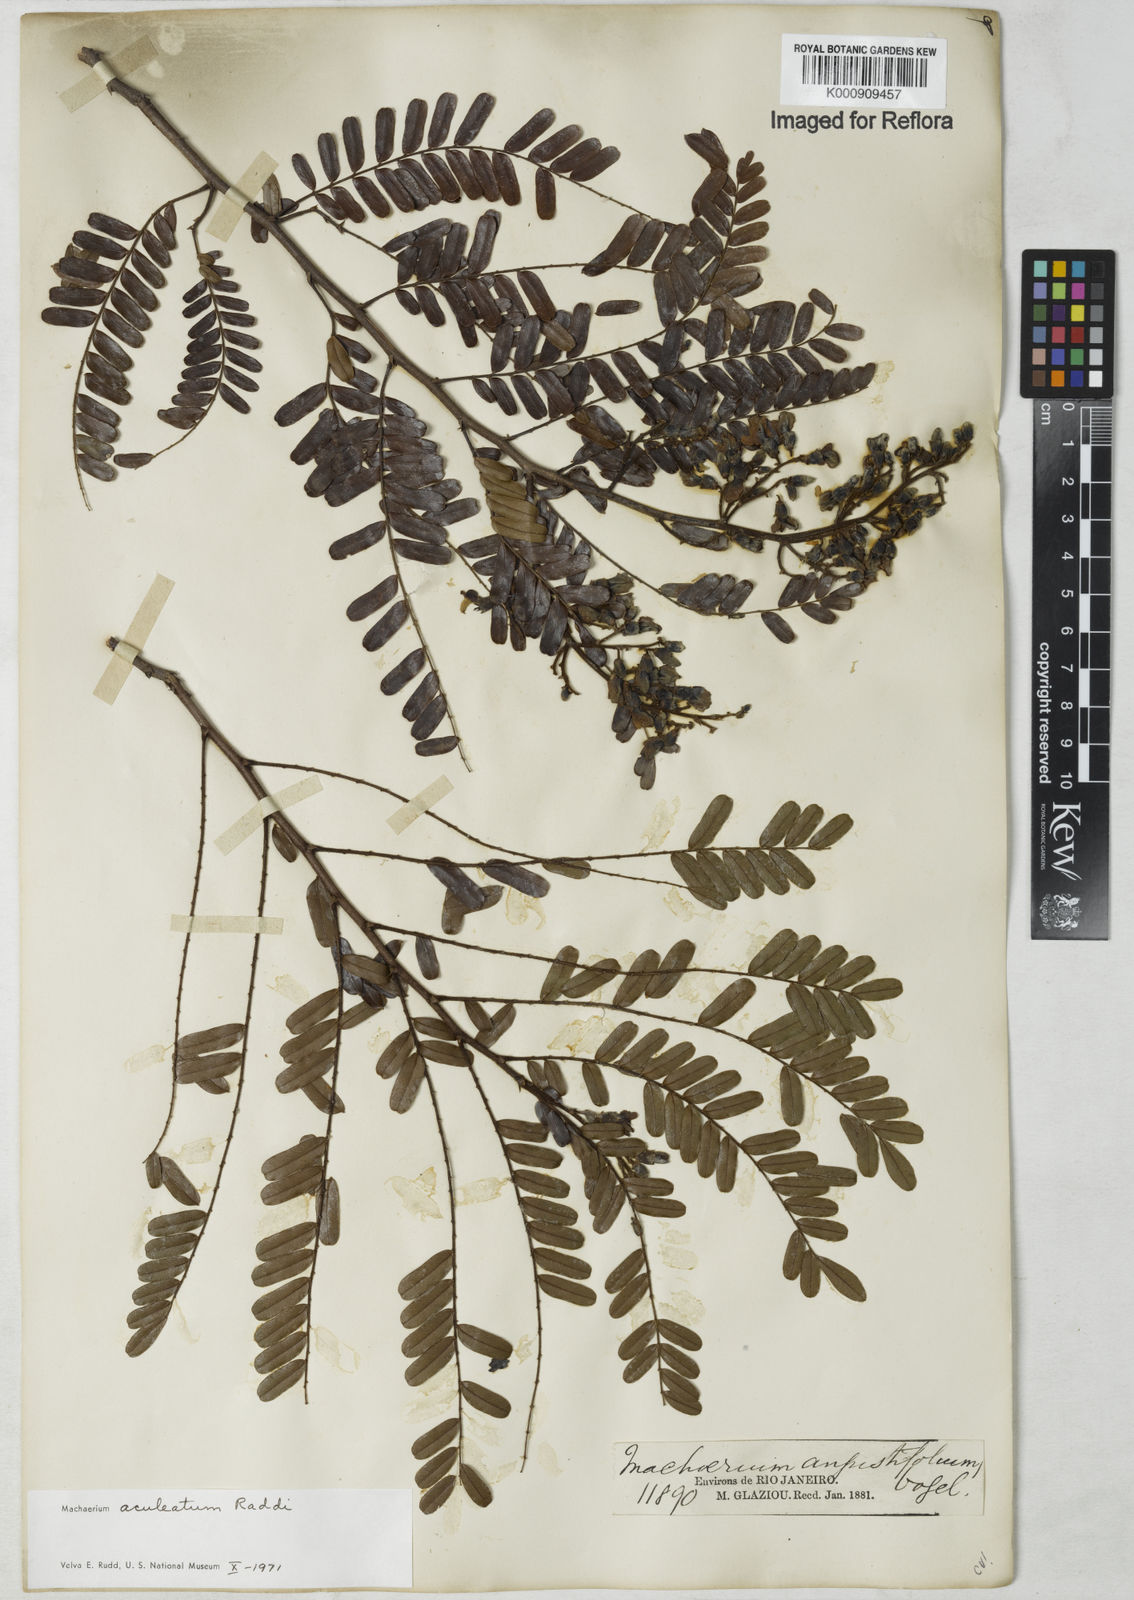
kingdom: Plantae
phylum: Tracheophyta
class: Magnoliopsida
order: Fabales
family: Fabaceae
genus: Machaerium
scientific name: Machaerium aculeatum
